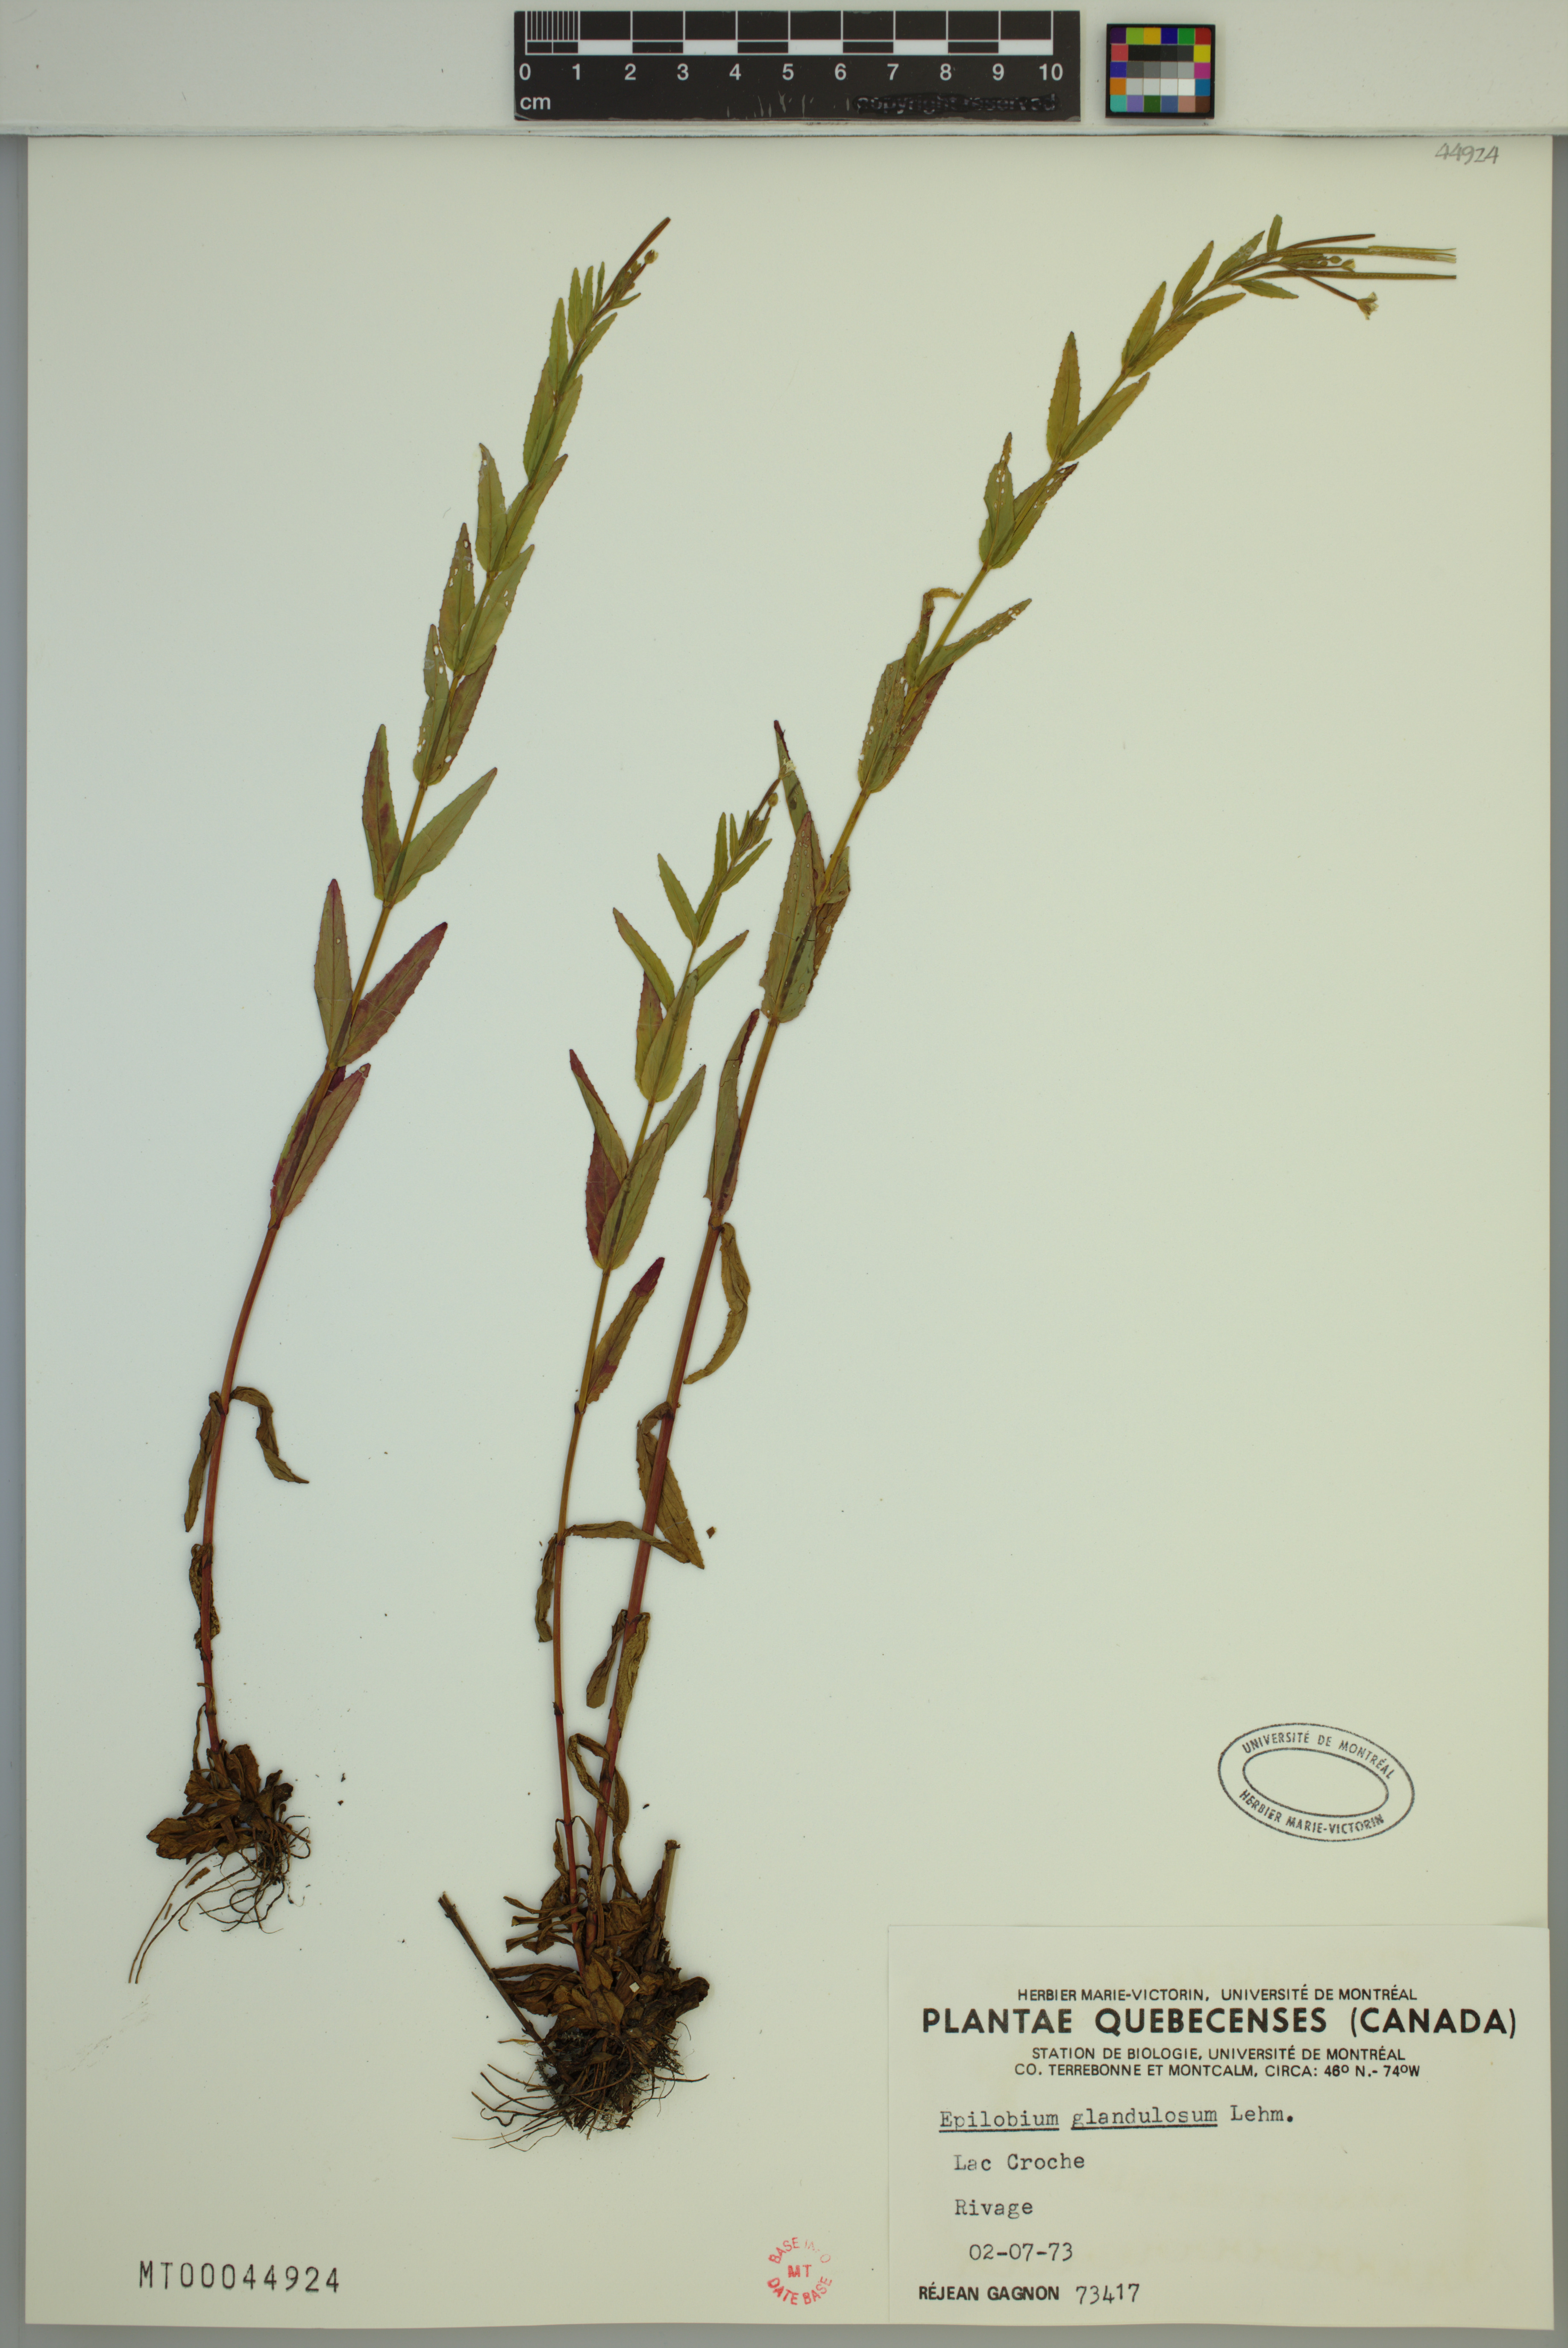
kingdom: Plantae
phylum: Tracheophyta
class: Magnoliopsida
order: Myrtales
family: Onagraceae
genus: Epilobium
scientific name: Epilobium ciliatum
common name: American willowherb
